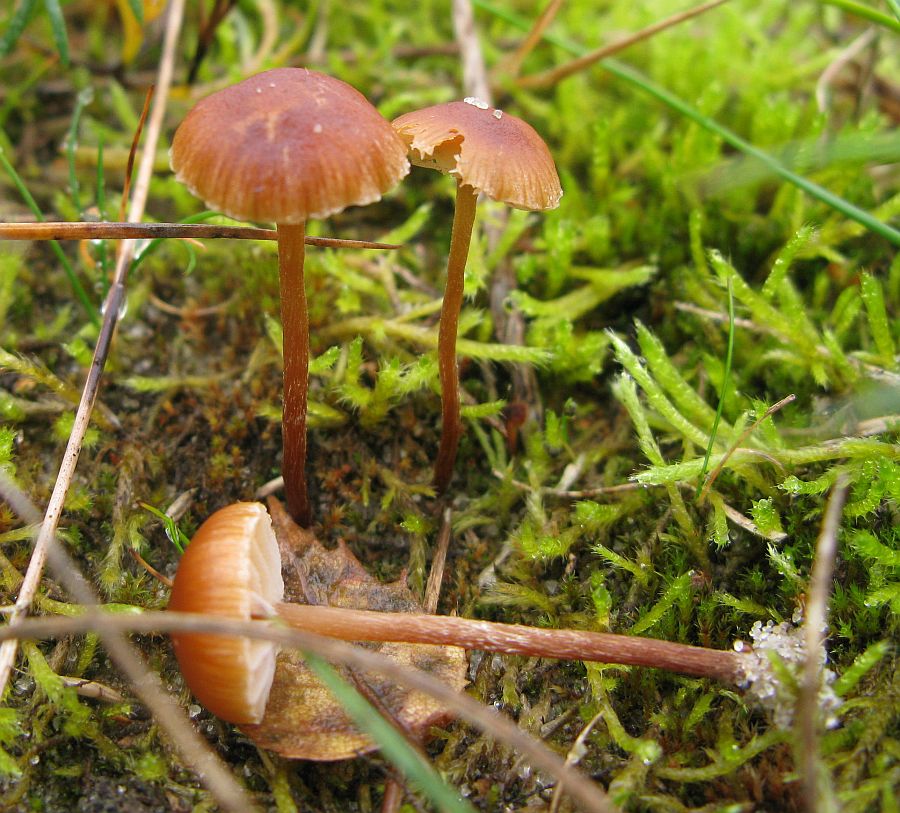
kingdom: Fungi
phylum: Basidiomycota
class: Agaricomycetes
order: Agaricales
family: Strophariaceae
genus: Deconica
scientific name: Deconica montana
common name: rødbrun stråhat
